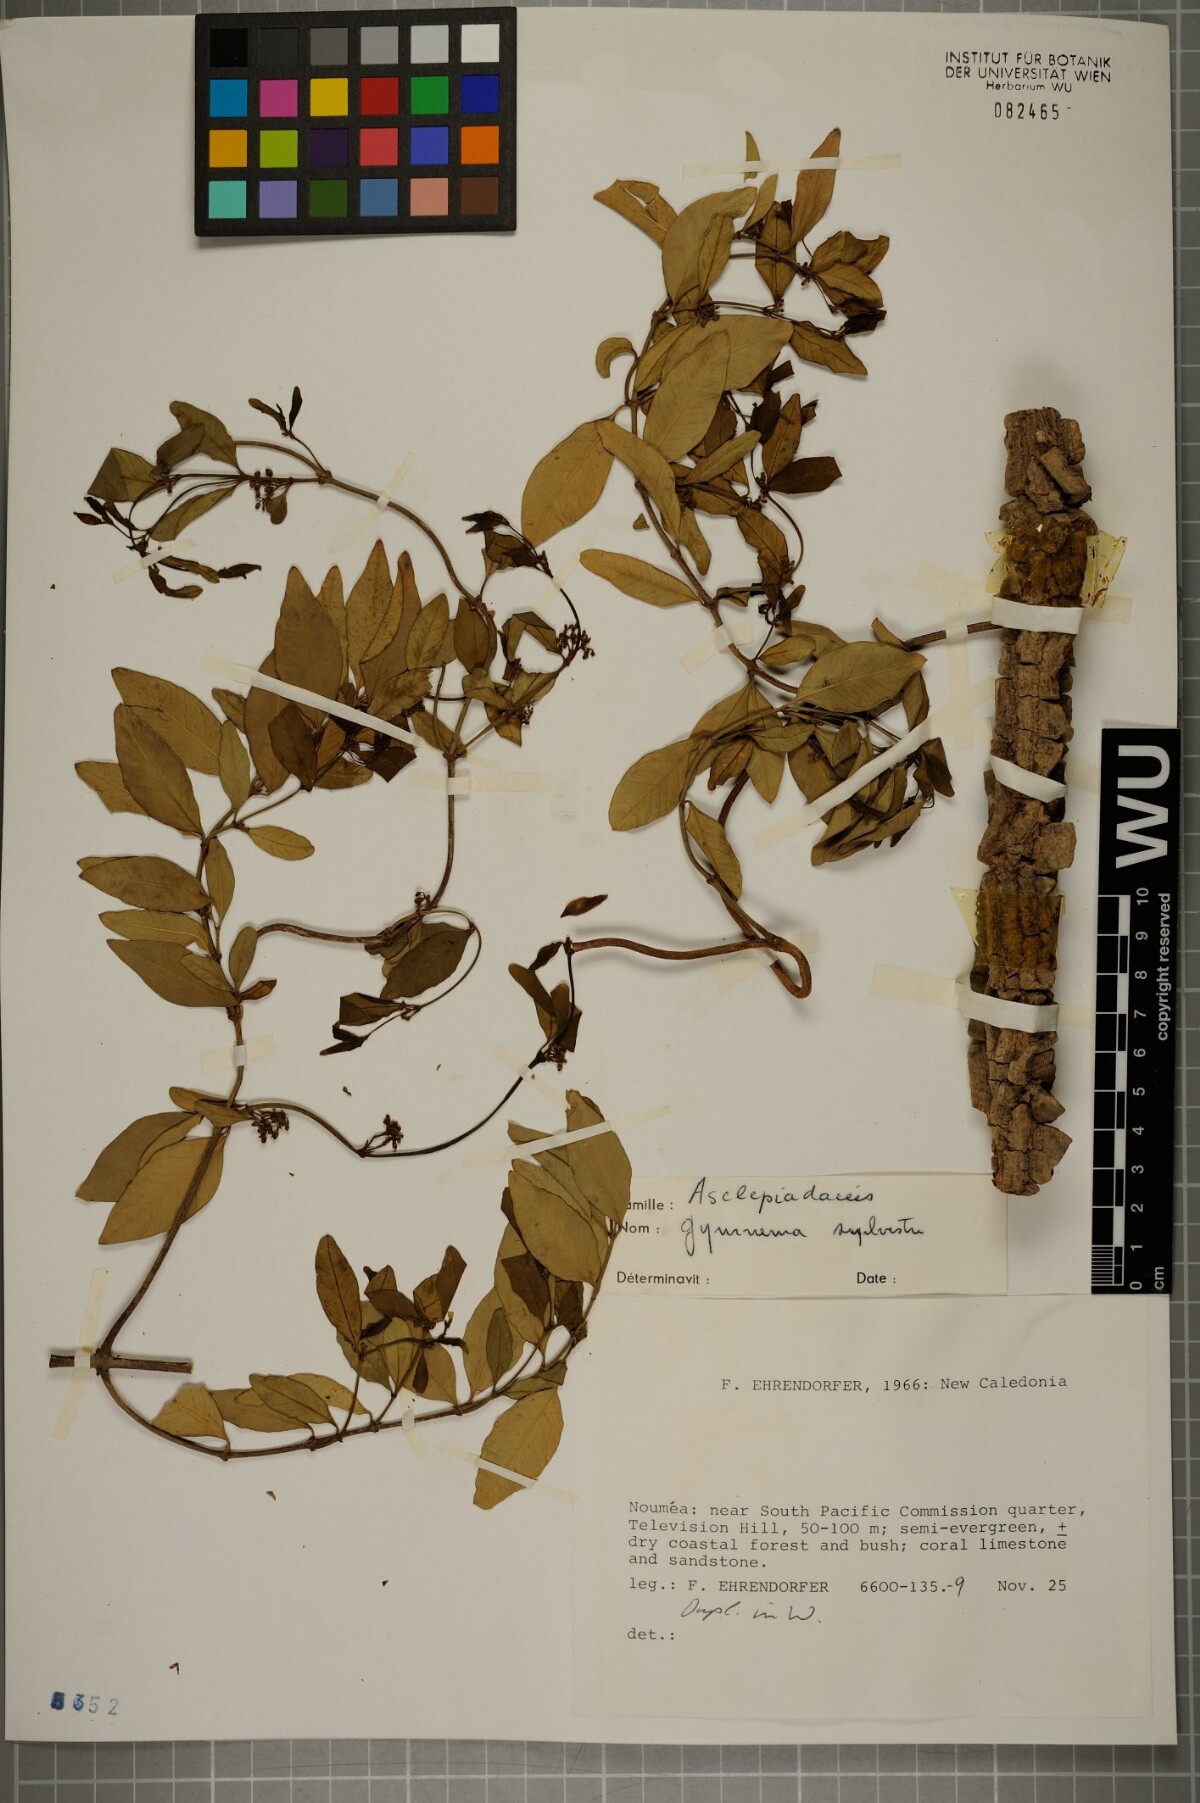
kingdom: Plantae
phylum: Tracheophyta
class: Magnoliopsida
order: Gentianales
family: Apocynaceae
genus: Gymnema
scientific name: Gymnema sylvestre
